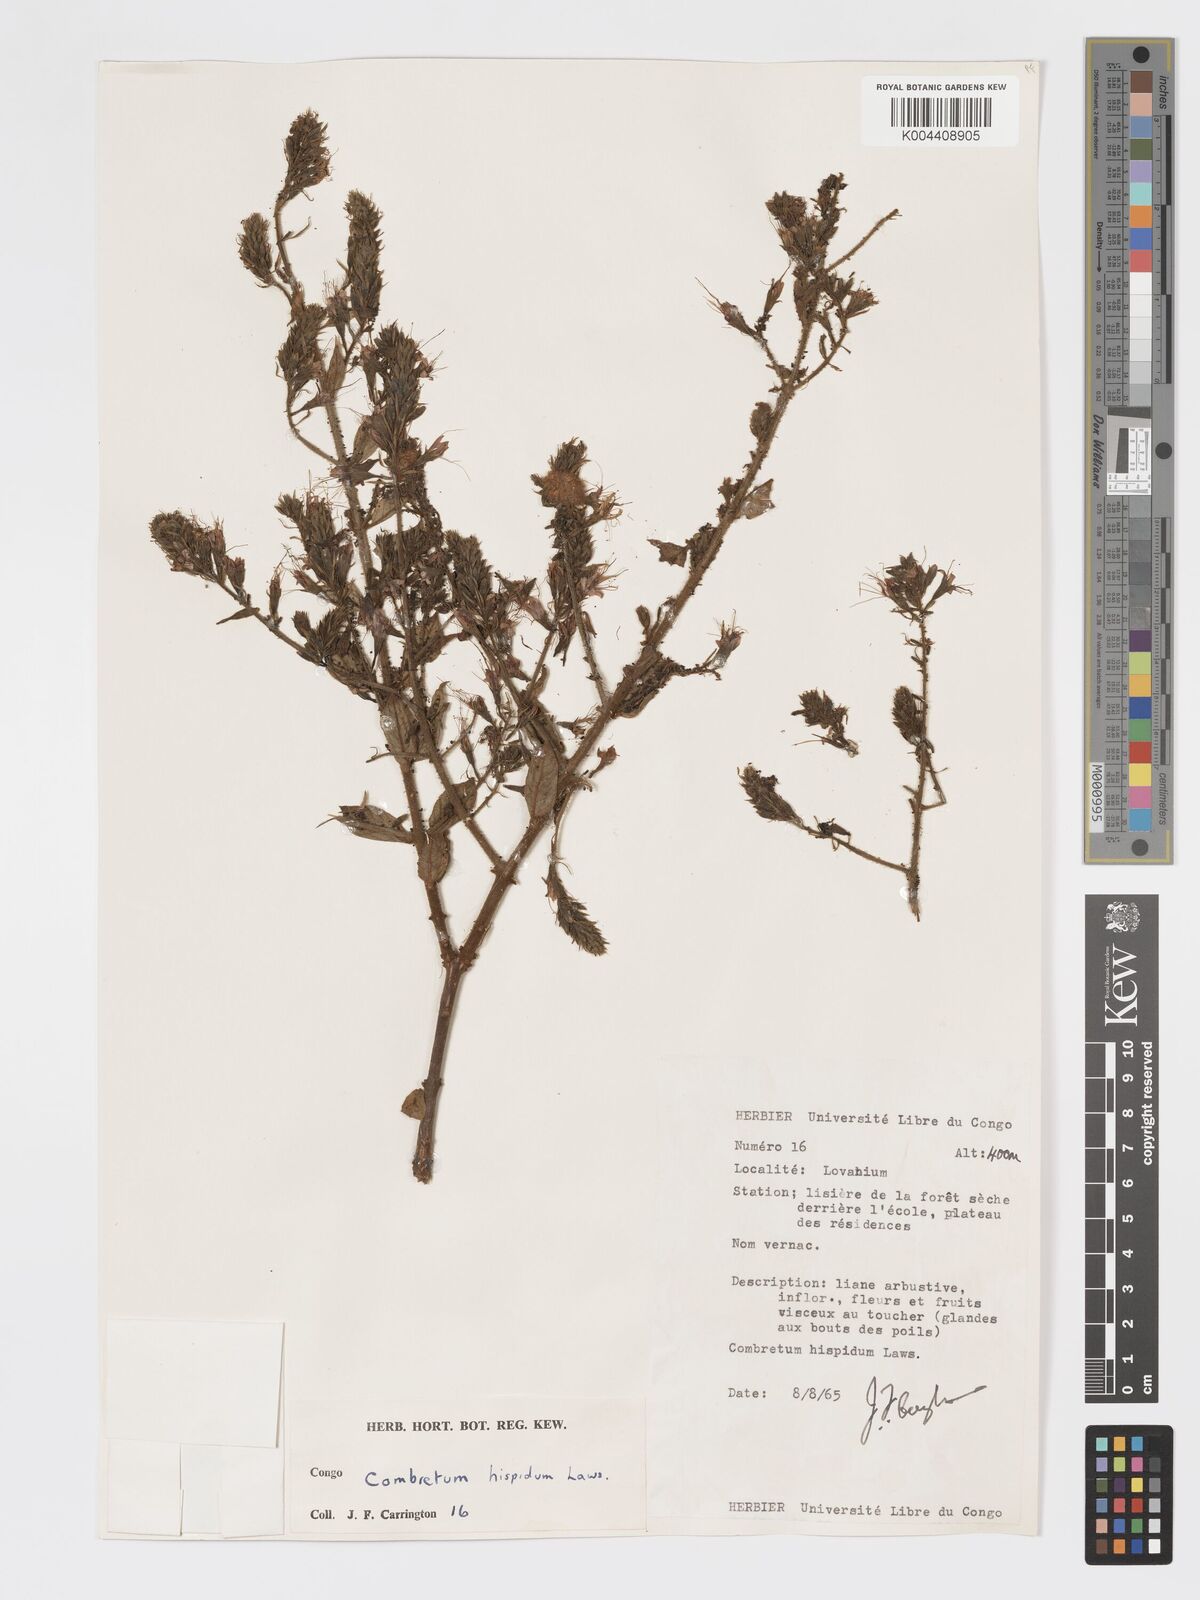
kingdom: Plantae
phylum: Tracheophyta
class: Magnoliopsida
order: Myrtales
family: Combretaceae
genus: Combretum
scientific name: Combretum comosum
